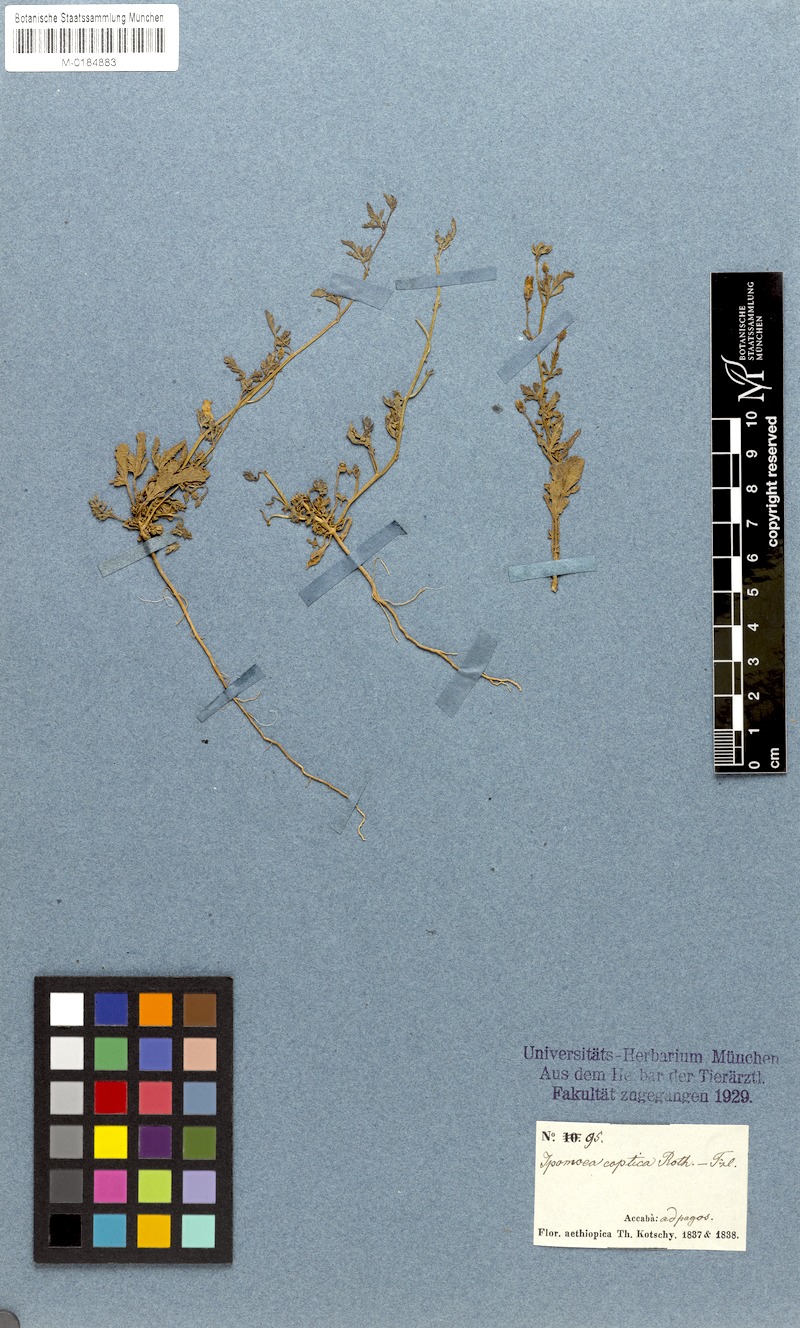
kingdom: Plantae
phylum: Tracheophyta
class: Magnoliopsida
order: Solanales
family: Convolvulaceae
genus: Ipomoea
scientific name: Ipomoea coptica
